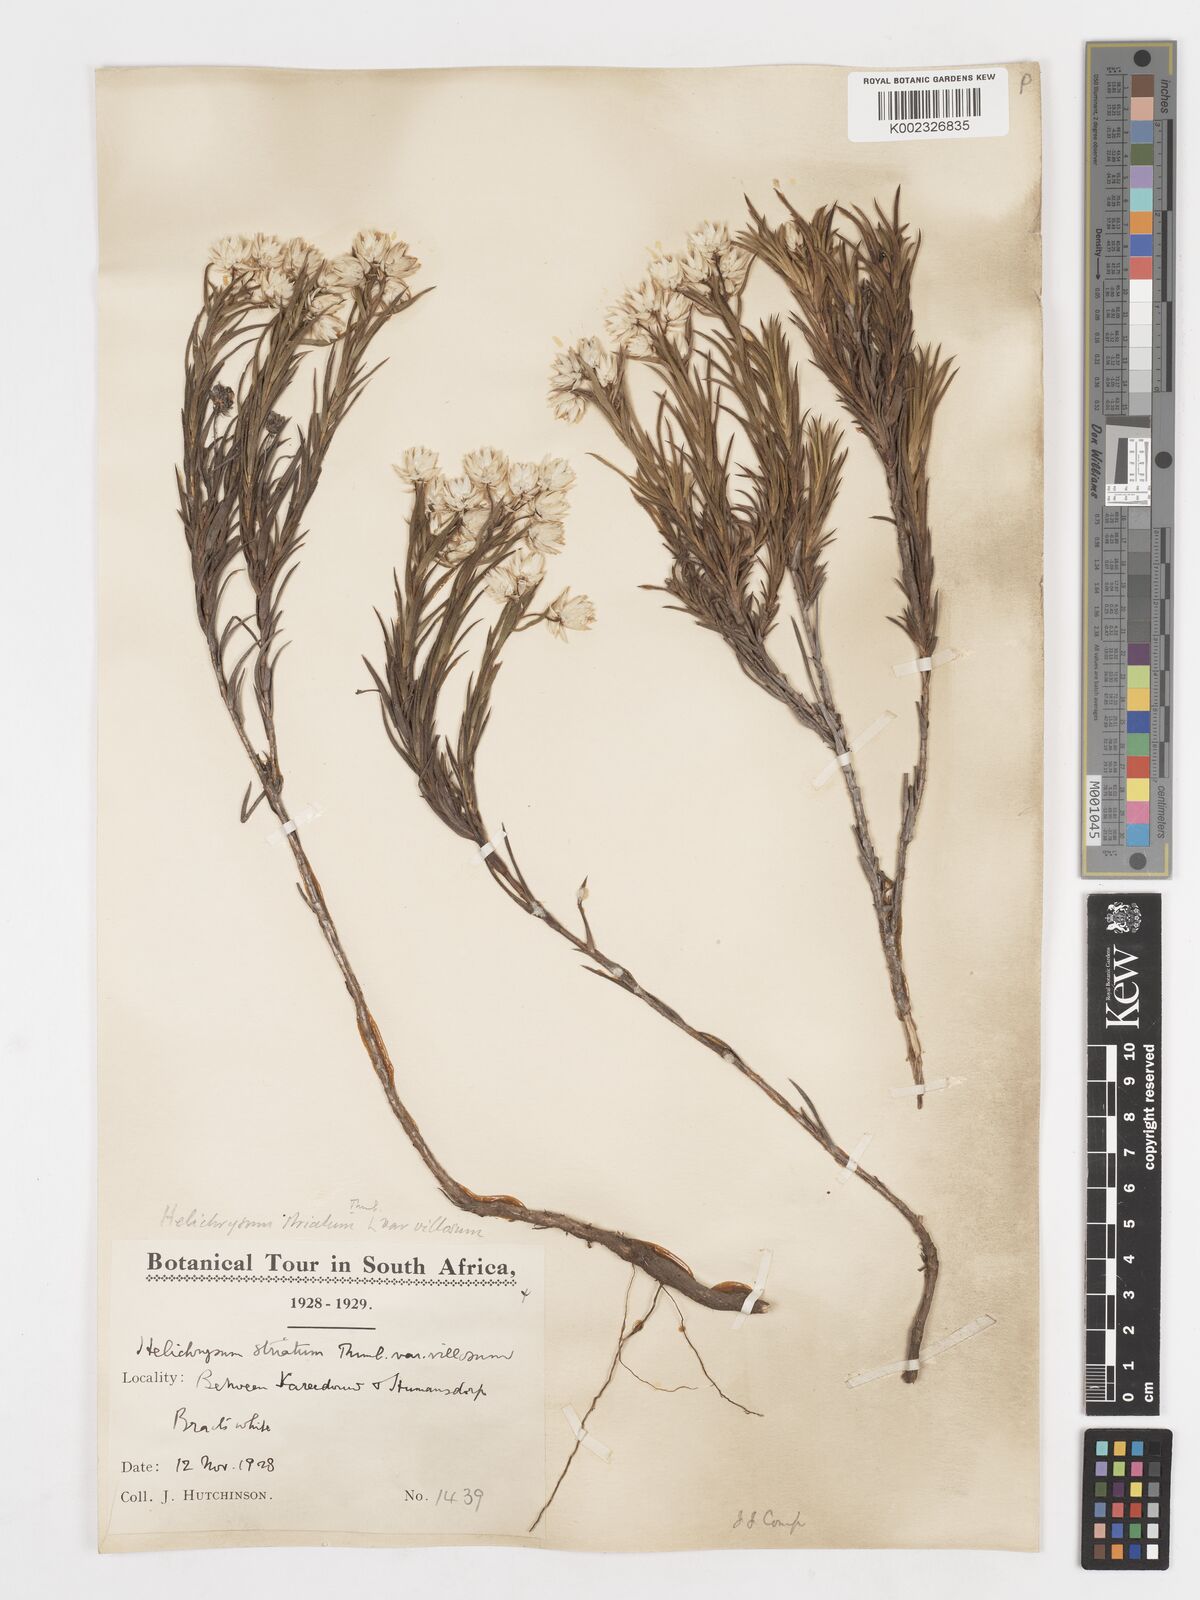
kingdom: Plantae
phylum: Tracheophyta
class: Magnoliopsida
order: Asterales
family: Asteraceae
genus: Achyranthemum
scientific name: Achyranthemum striatum
